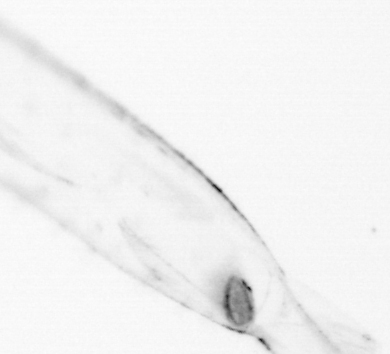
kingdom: Animalia
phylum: Chaetognatha
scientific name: Chaetognatha
